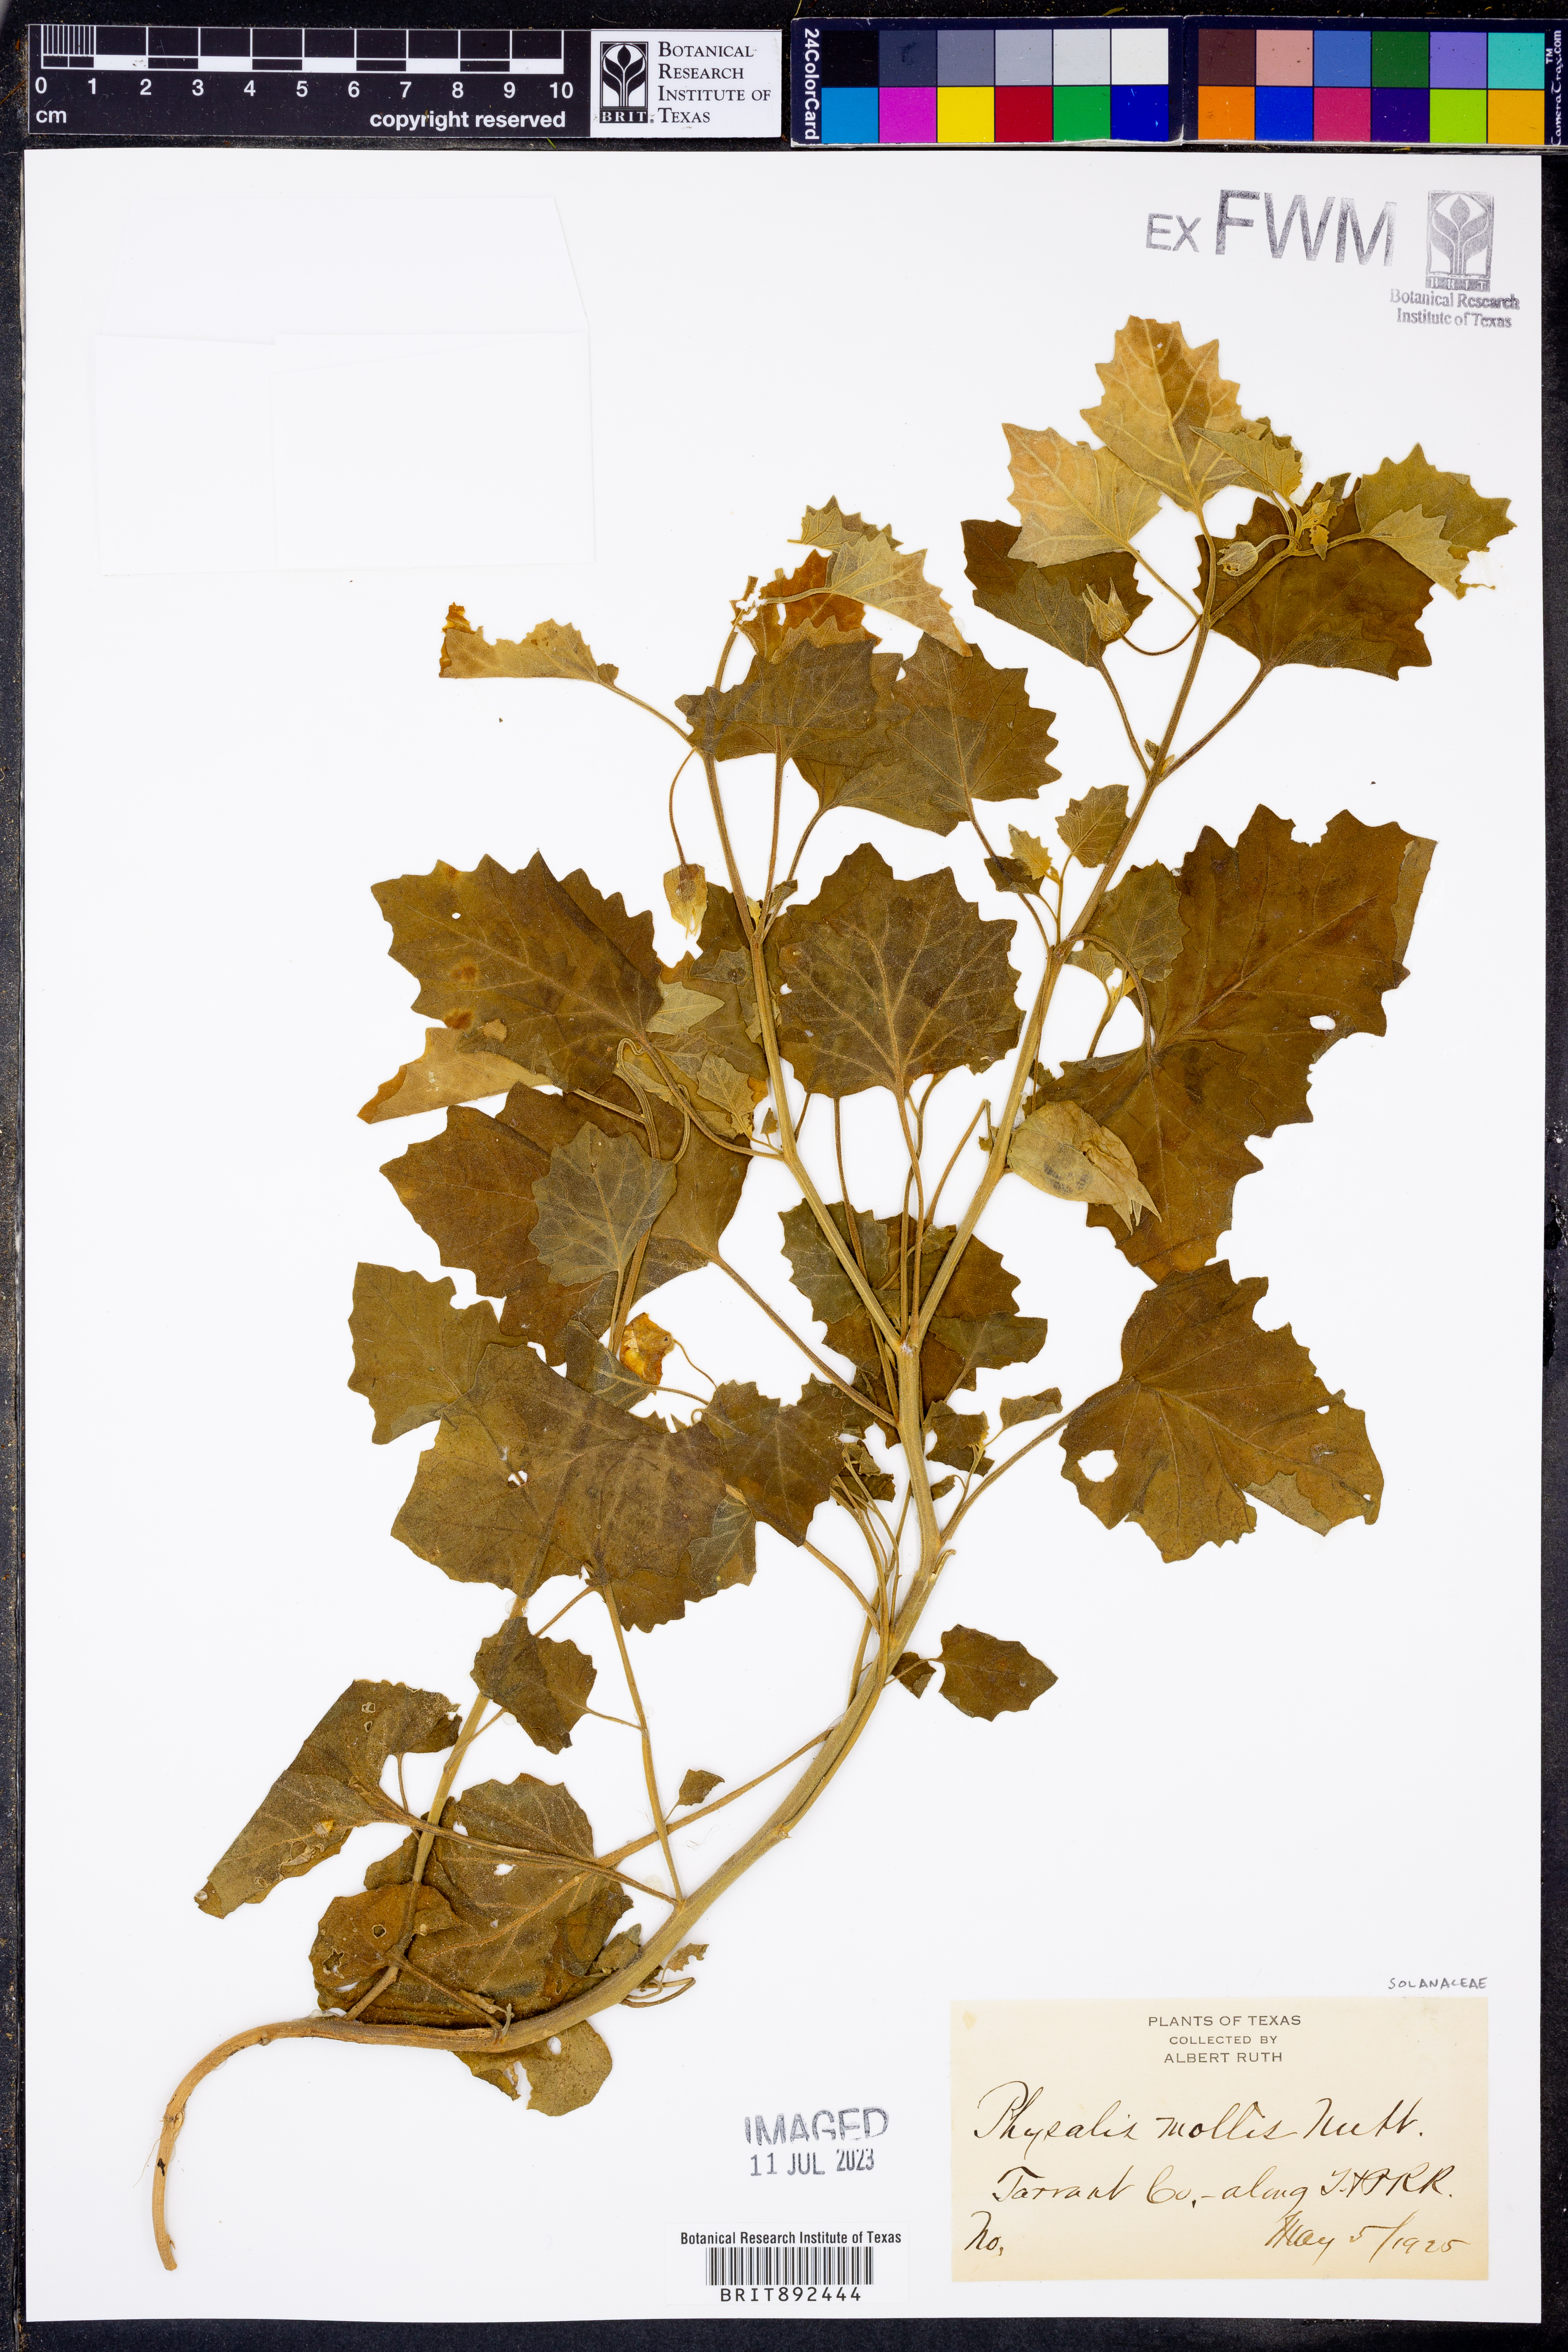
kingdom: Plantae
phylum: Tracheophyta
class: Magnoliopsida
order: Solanales
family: Solanaceae
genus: Physalis
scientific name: Physalis mollis
